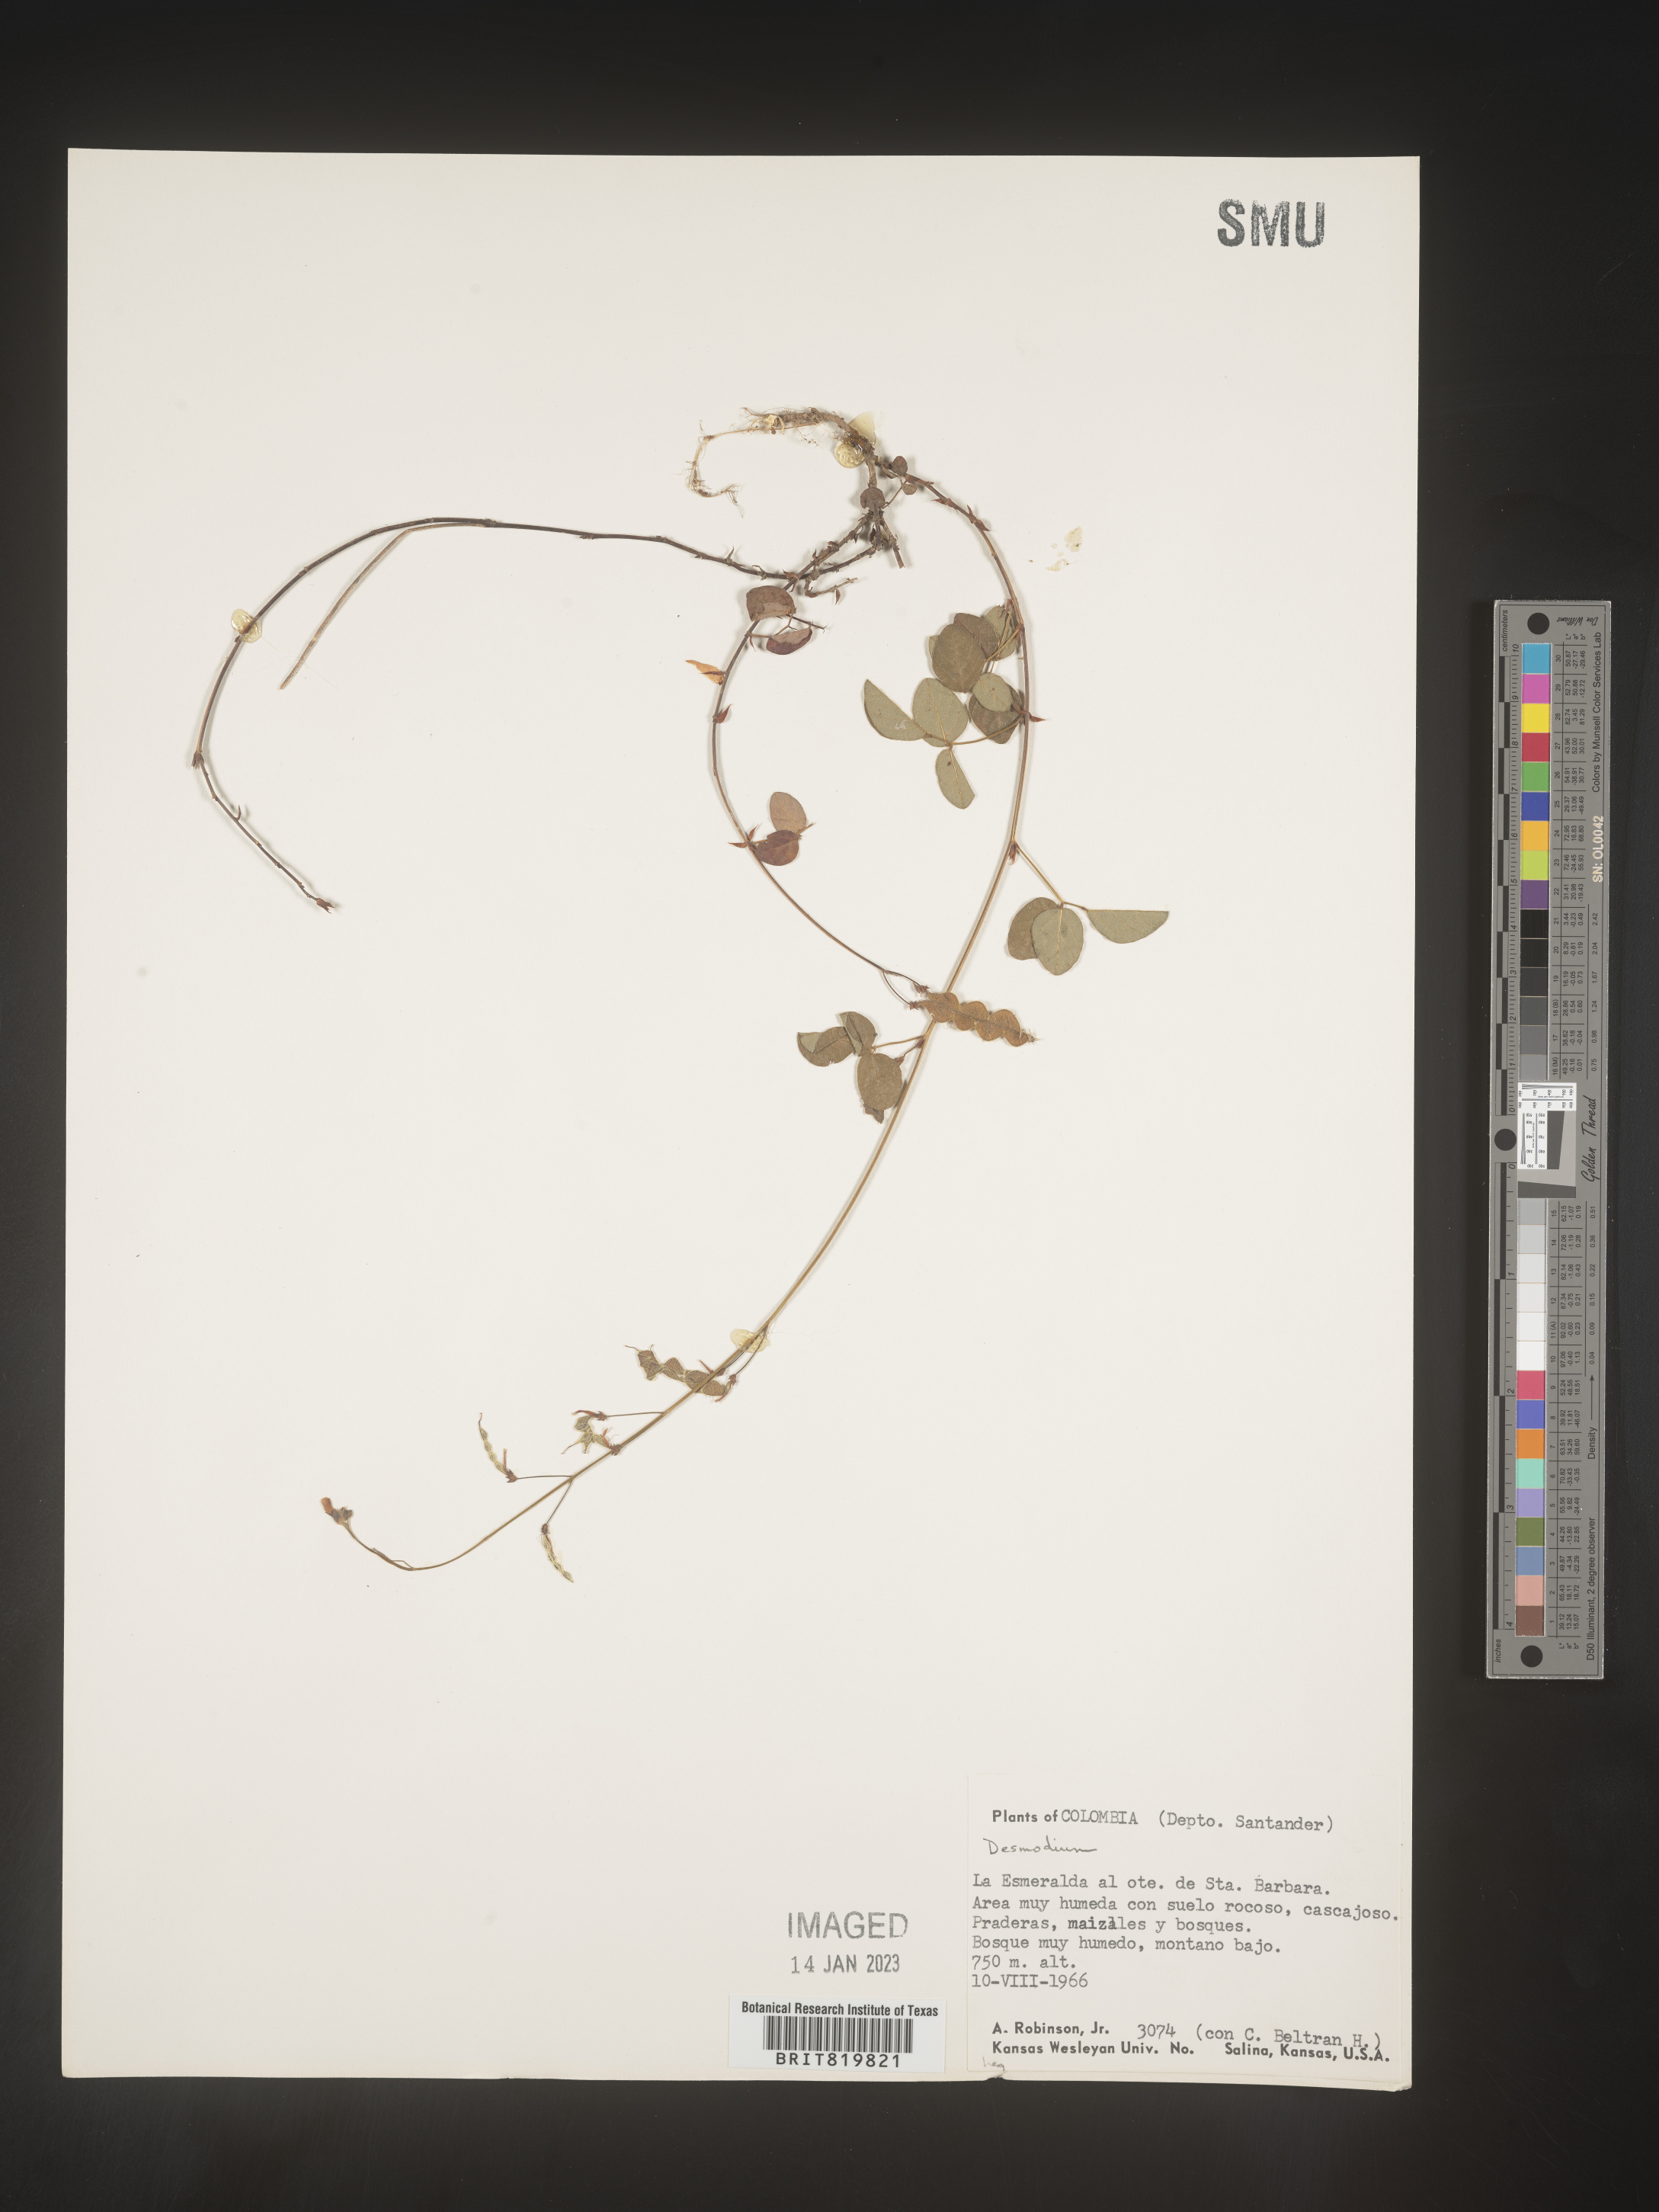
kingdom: Plantae
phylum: Tracheophyta
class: Magnoliopsida
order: Fabales
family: Fabaceae
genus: Desmodium
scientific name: Desmodium
